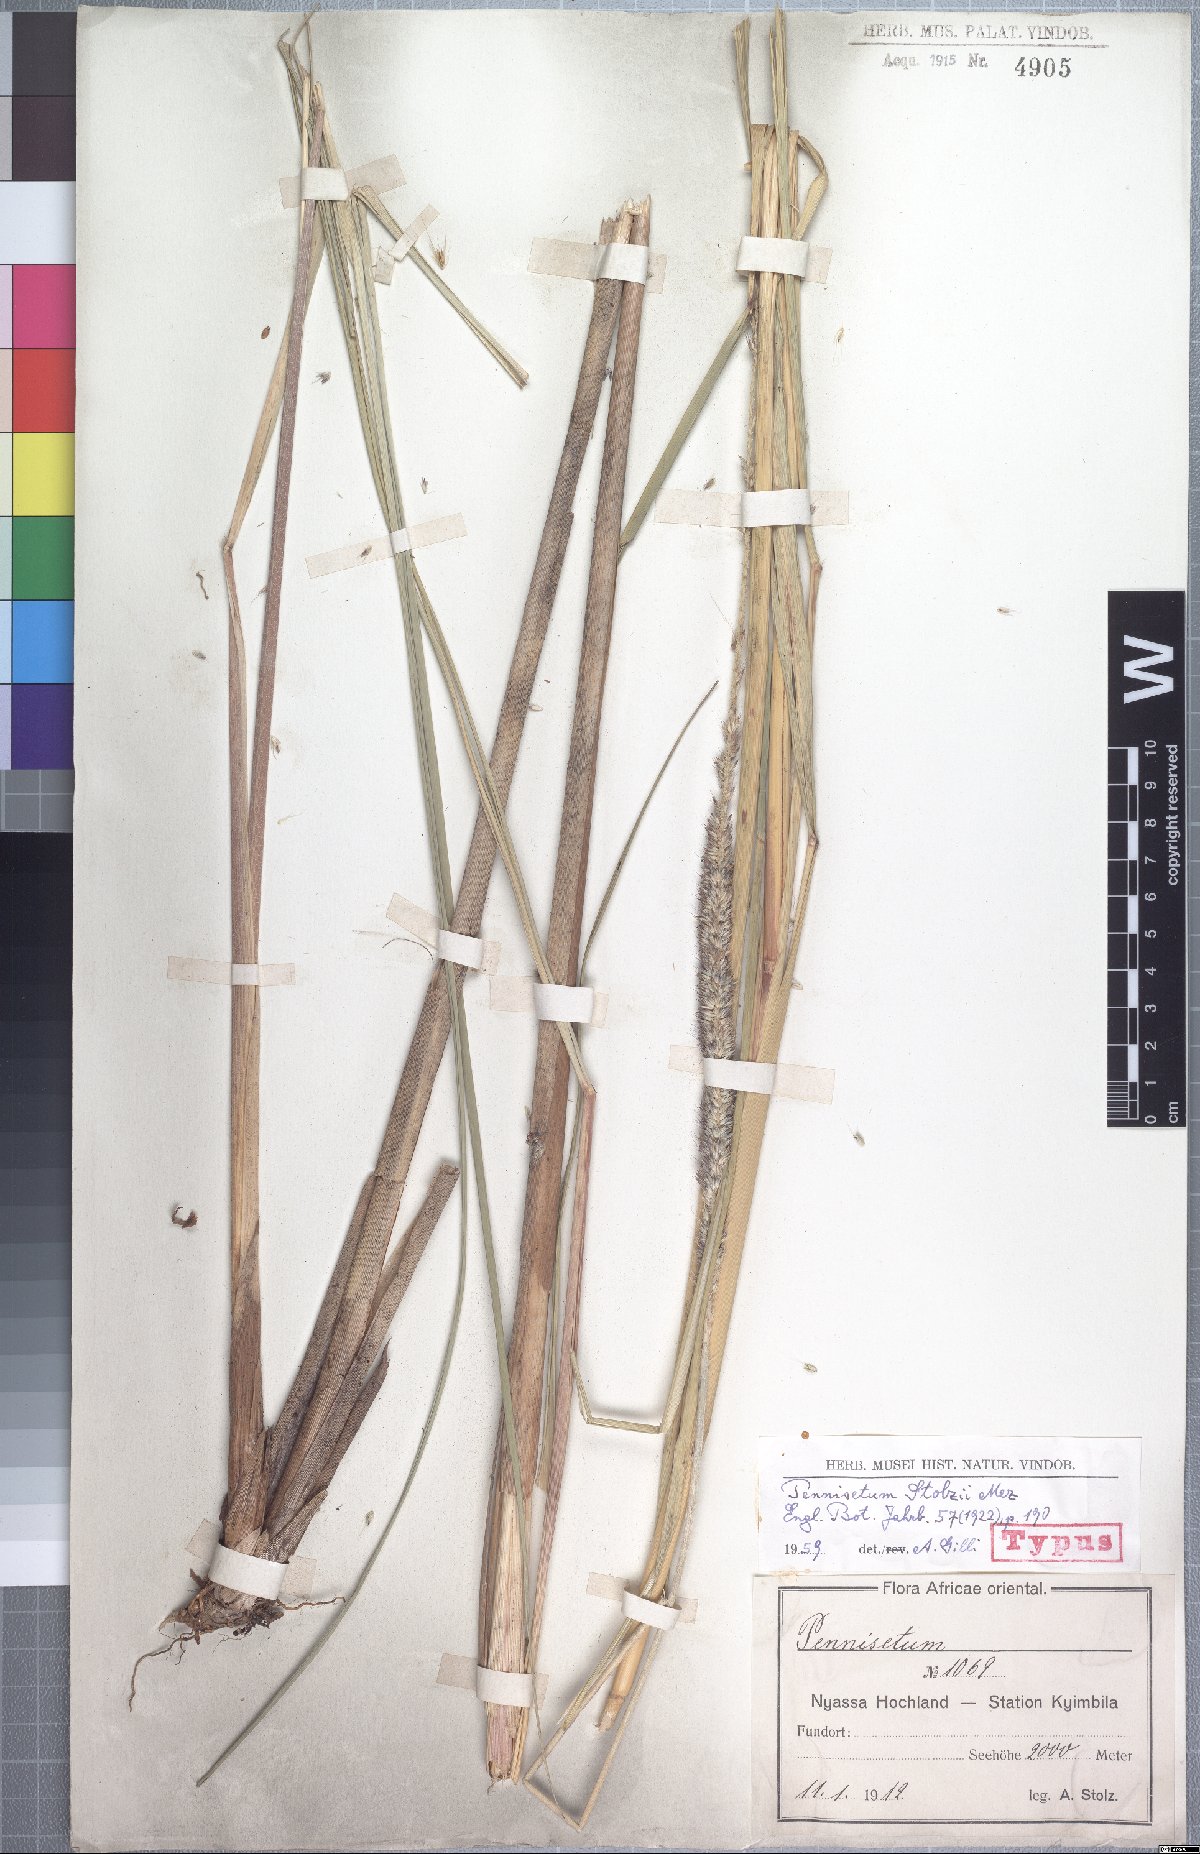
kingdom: Plantae
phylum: Tracheophyta
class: Liliopsida
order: Poales
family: Poaceae
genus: Cenchrus
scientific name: Cenchrus caudatus
